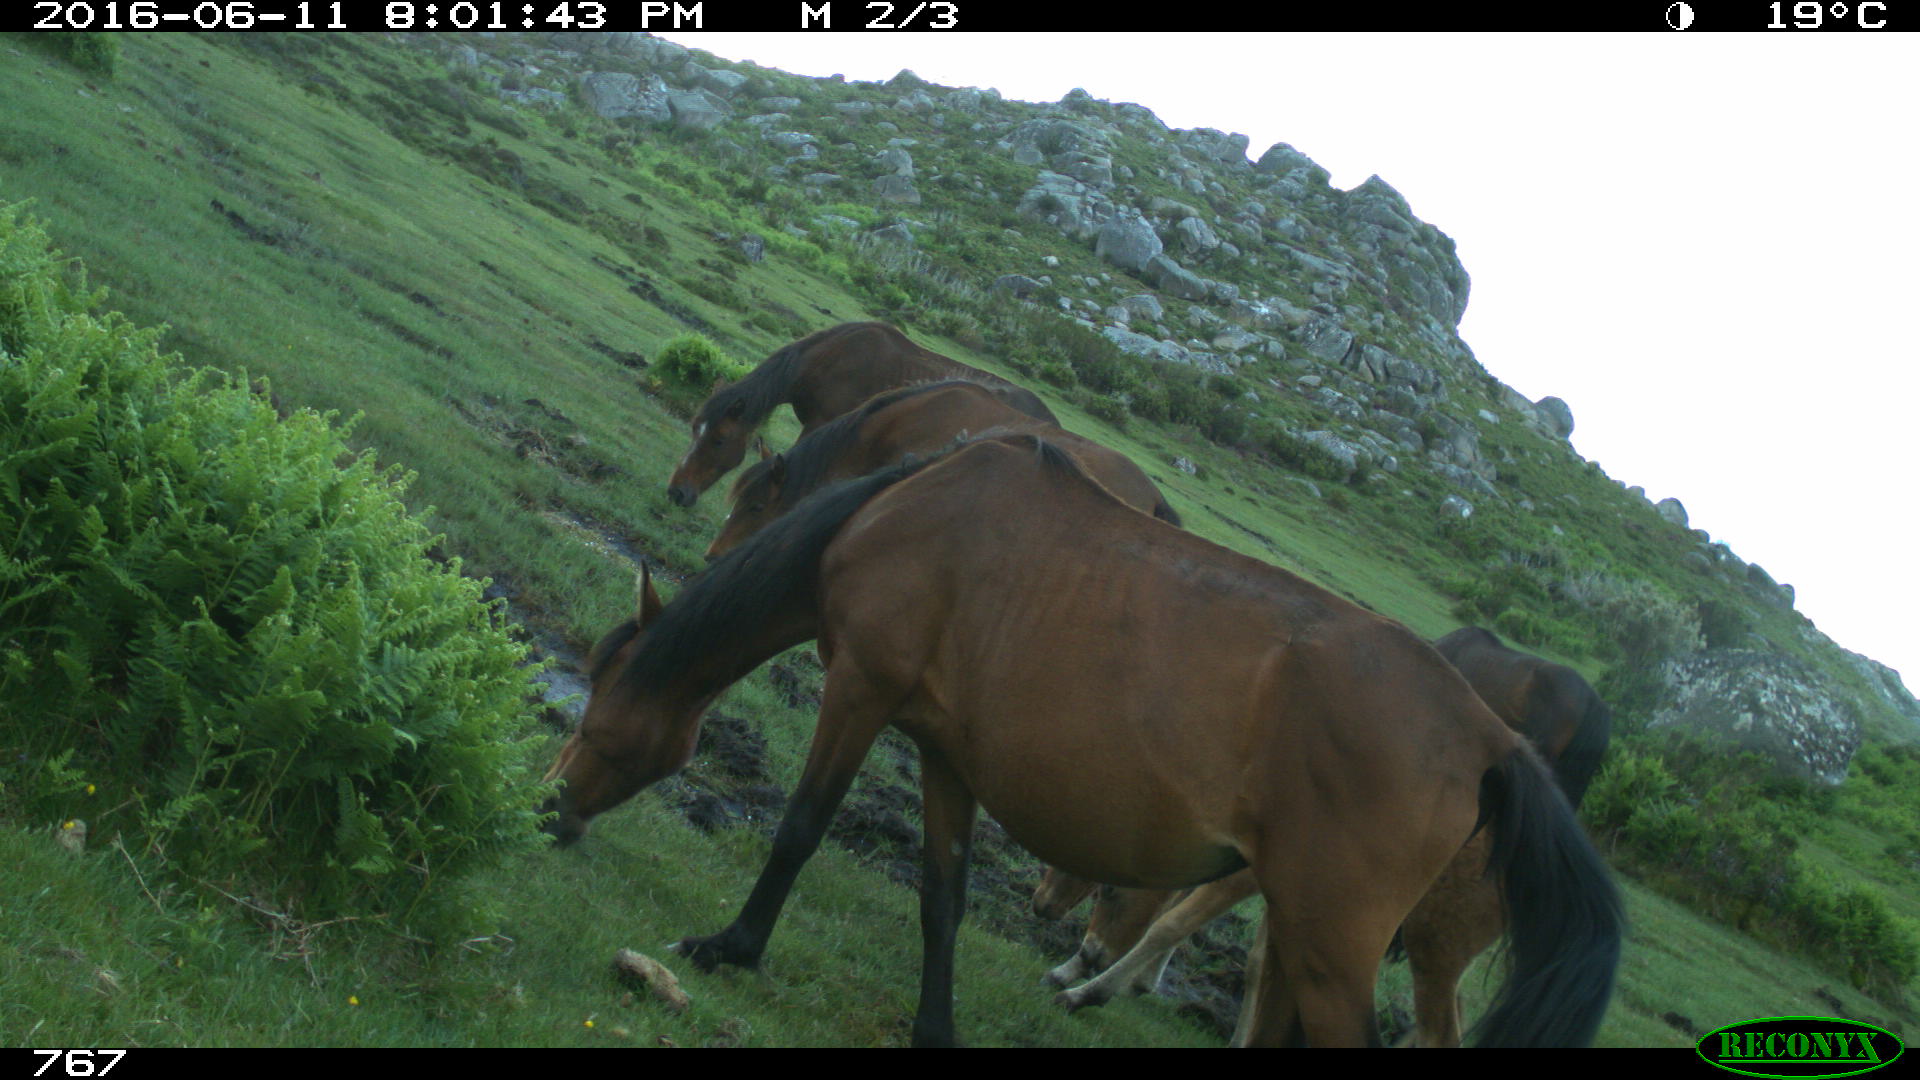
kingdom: Animalia
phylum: Chordata
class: Mammalia
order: Perissodactyla
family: Equidae
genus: Equus
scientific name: Equus caballus
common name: Horse
